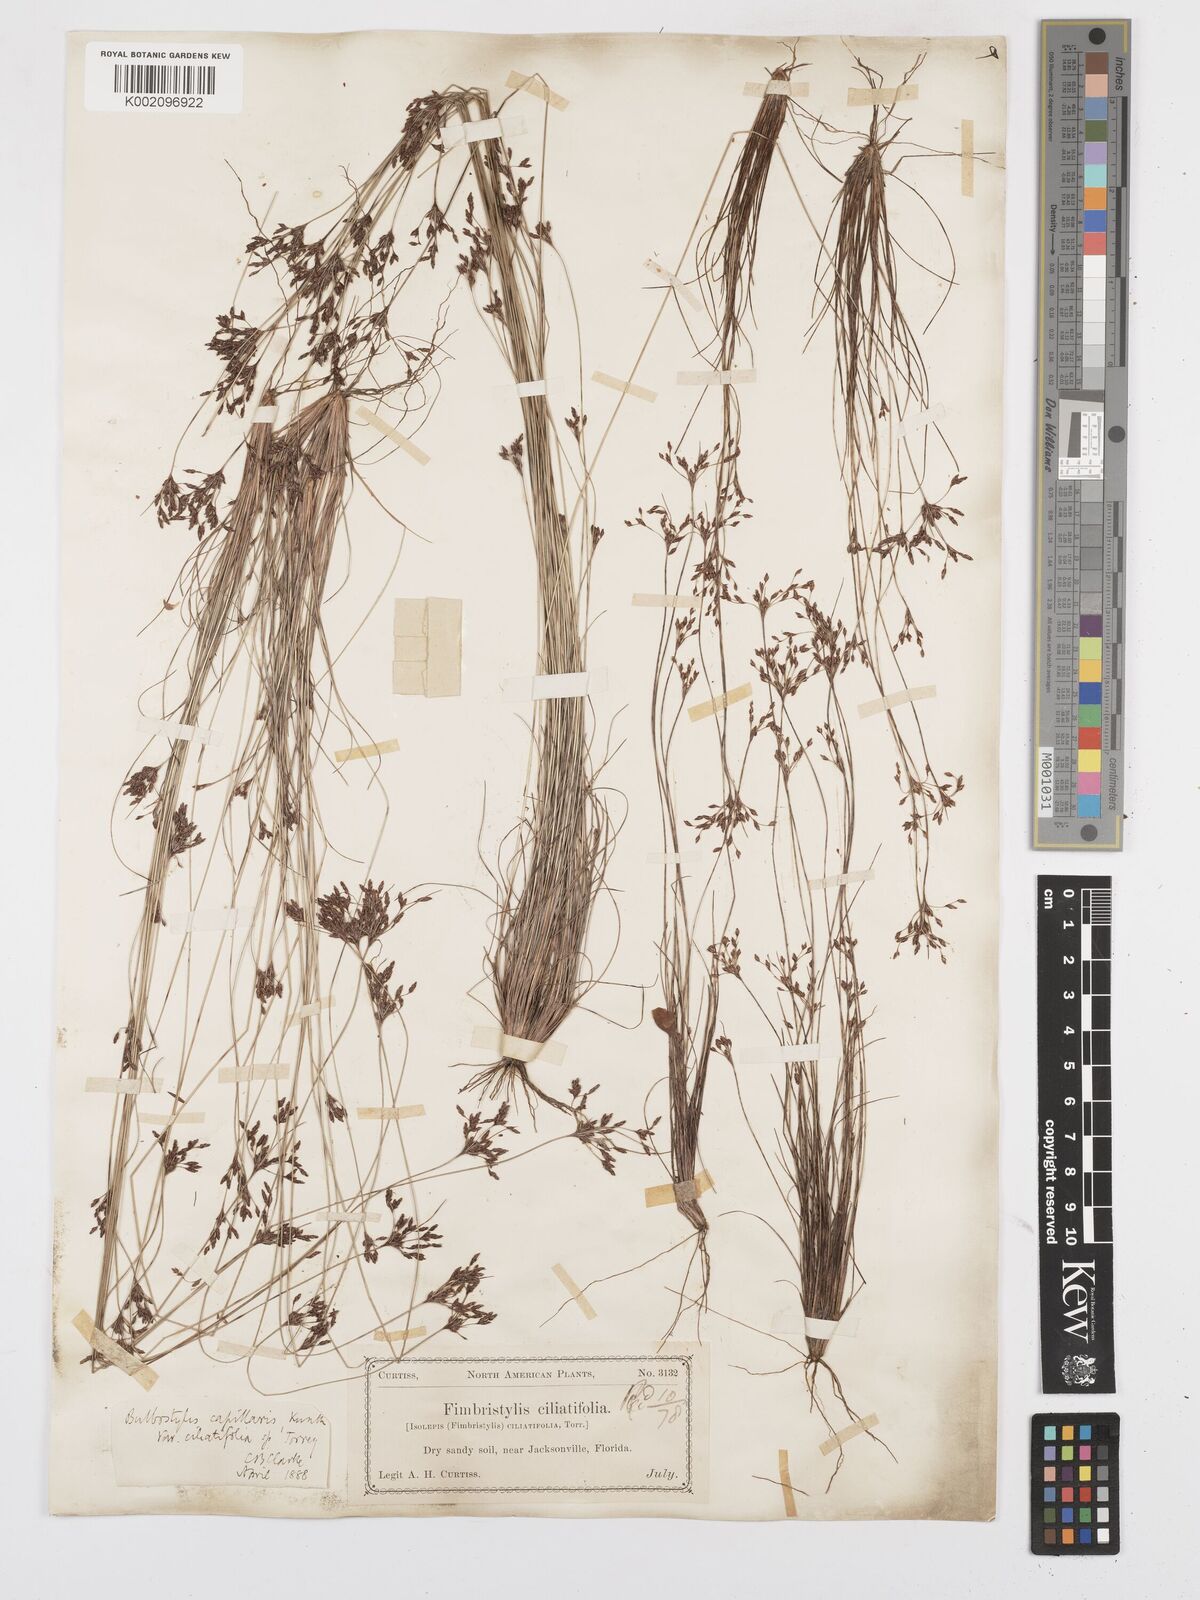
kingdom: Plantae
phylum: Tracheophyta
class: Liliopsida
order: Poales
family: Cyperaceae
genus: Bulbostylis
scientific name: Bulbostylis ciliatifolia
